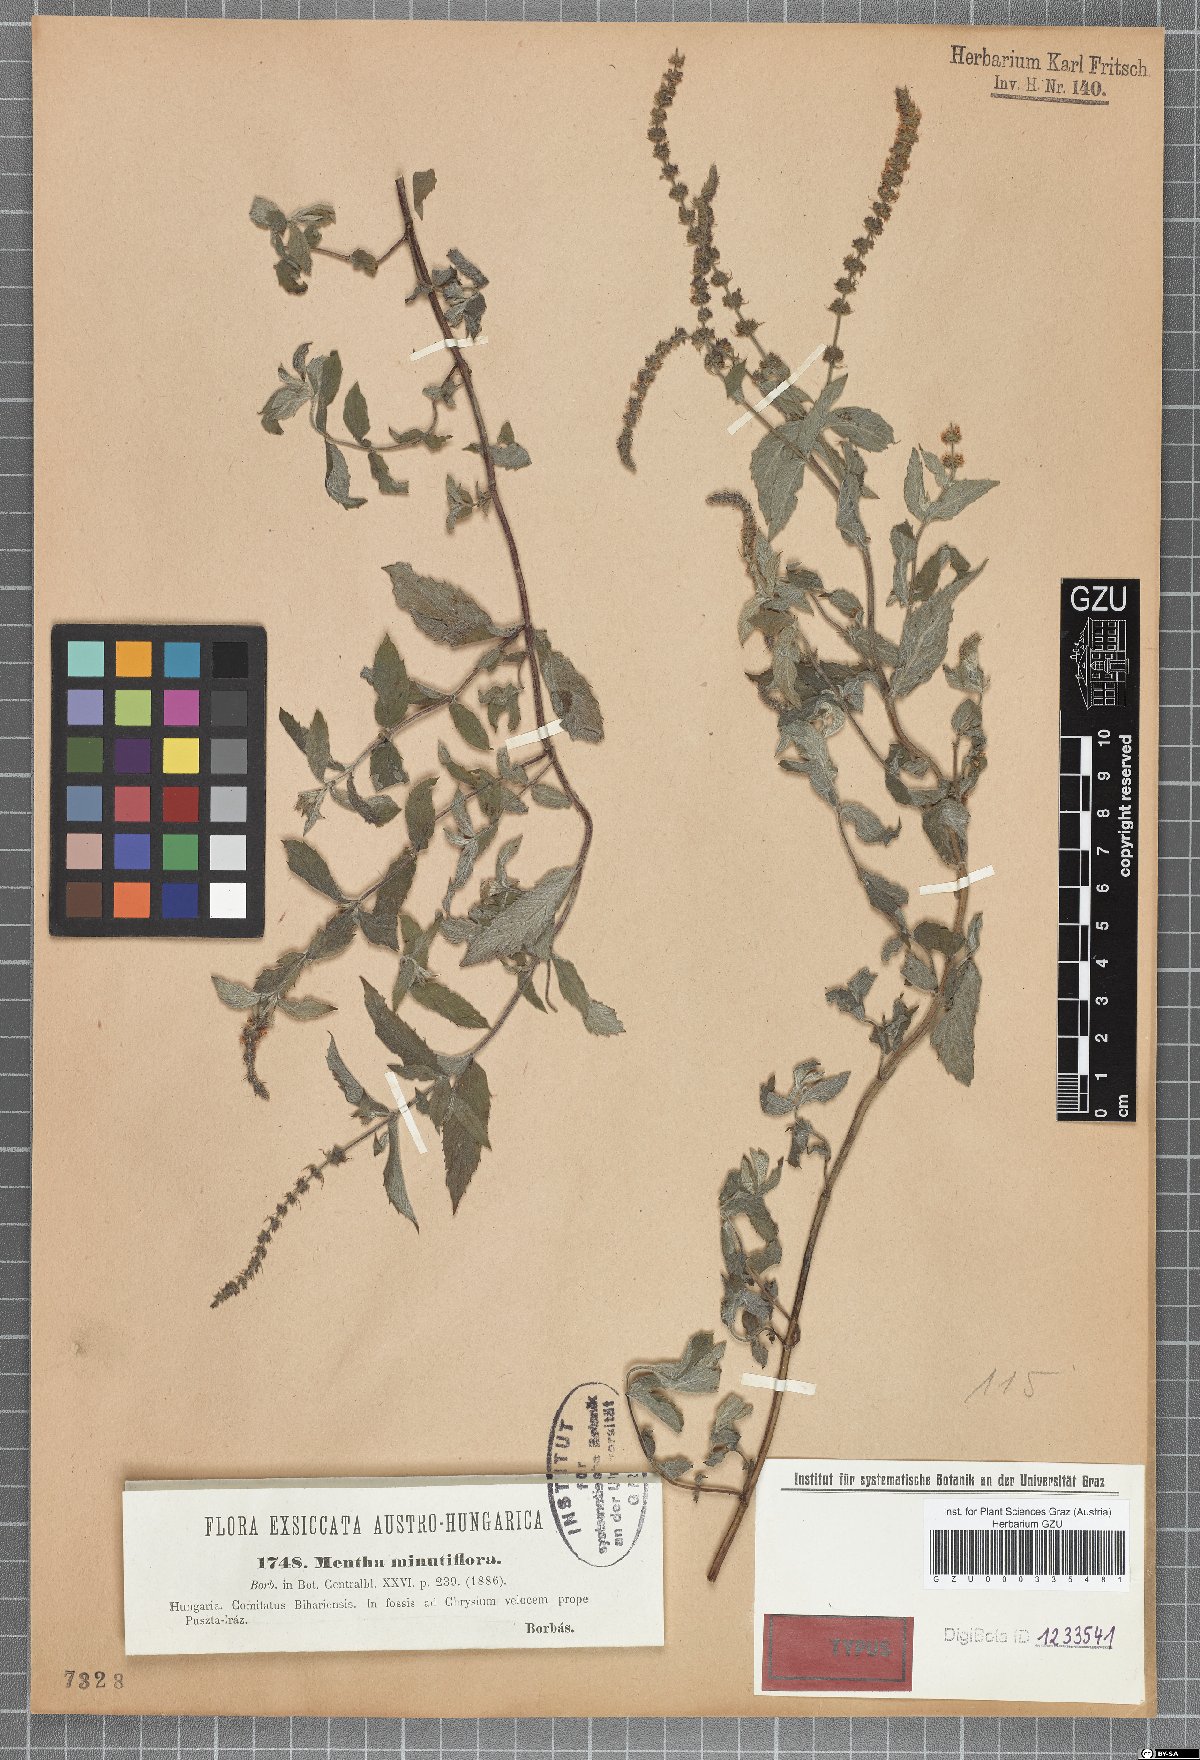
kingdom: Plantae
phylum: Tracheophyta
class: Magnoliopsida
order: Lamiales
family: Lamiaceae
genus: Mentha
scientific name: Mentha minutiflora
